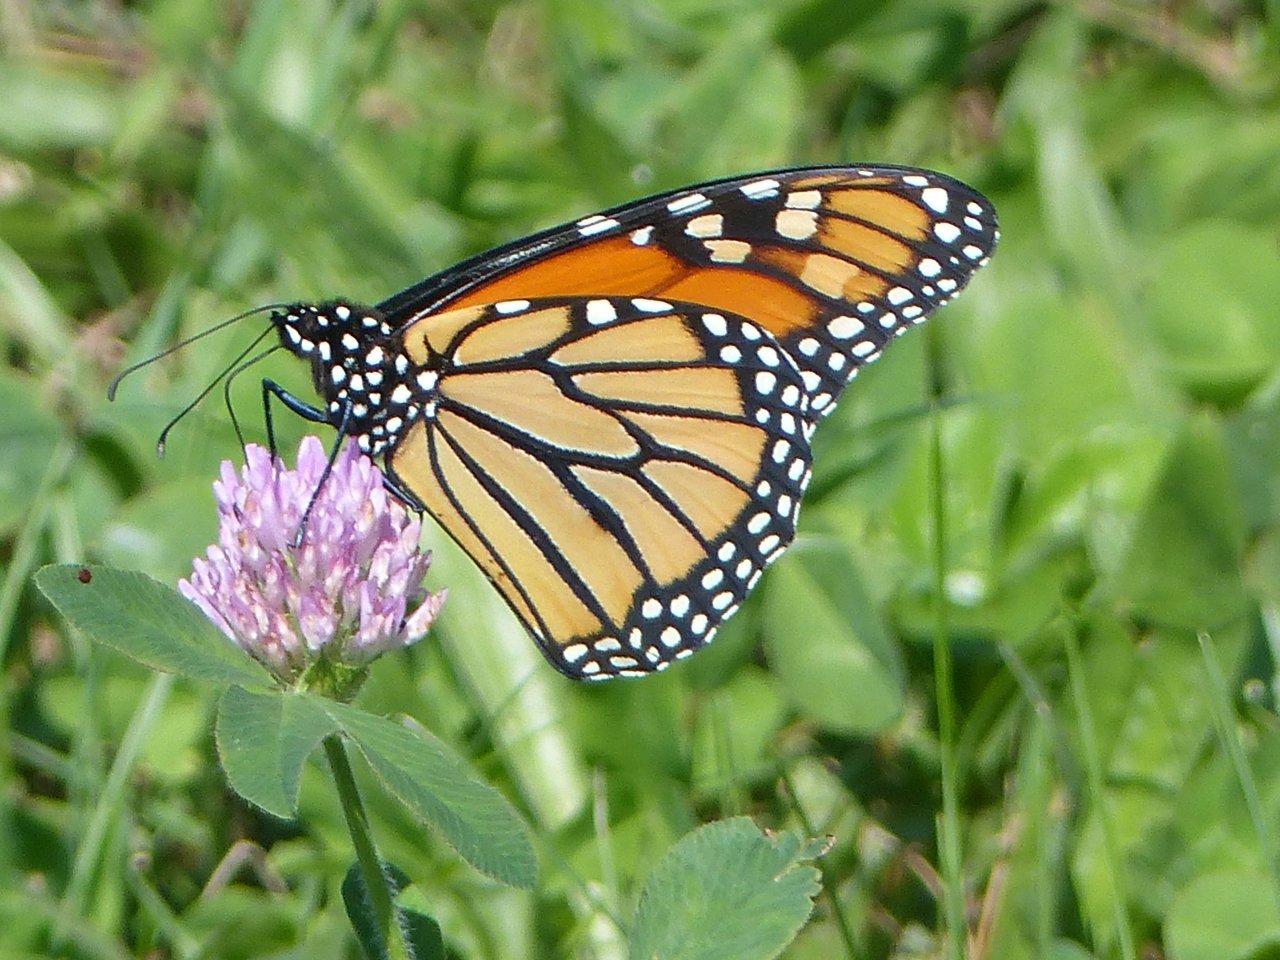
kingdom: Animalia
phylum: Arthropoda
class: Insecta
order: Lepidoptera
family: Nymphalidae
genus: Danaus
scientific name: Danaus plexippus
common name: Monarch
